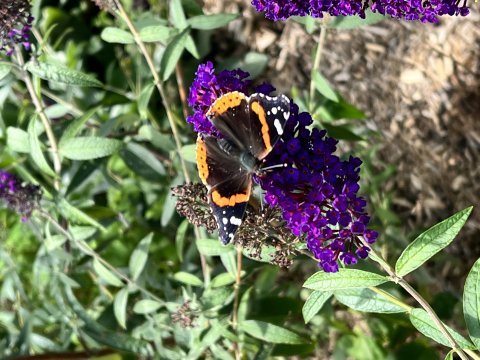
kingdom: Animalia
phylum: Arthropoda
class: Insecta
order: Lepidoptera
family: Nymphalidae
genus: Vanessa
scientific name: Vanessa atalanta
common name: Red Admiral
